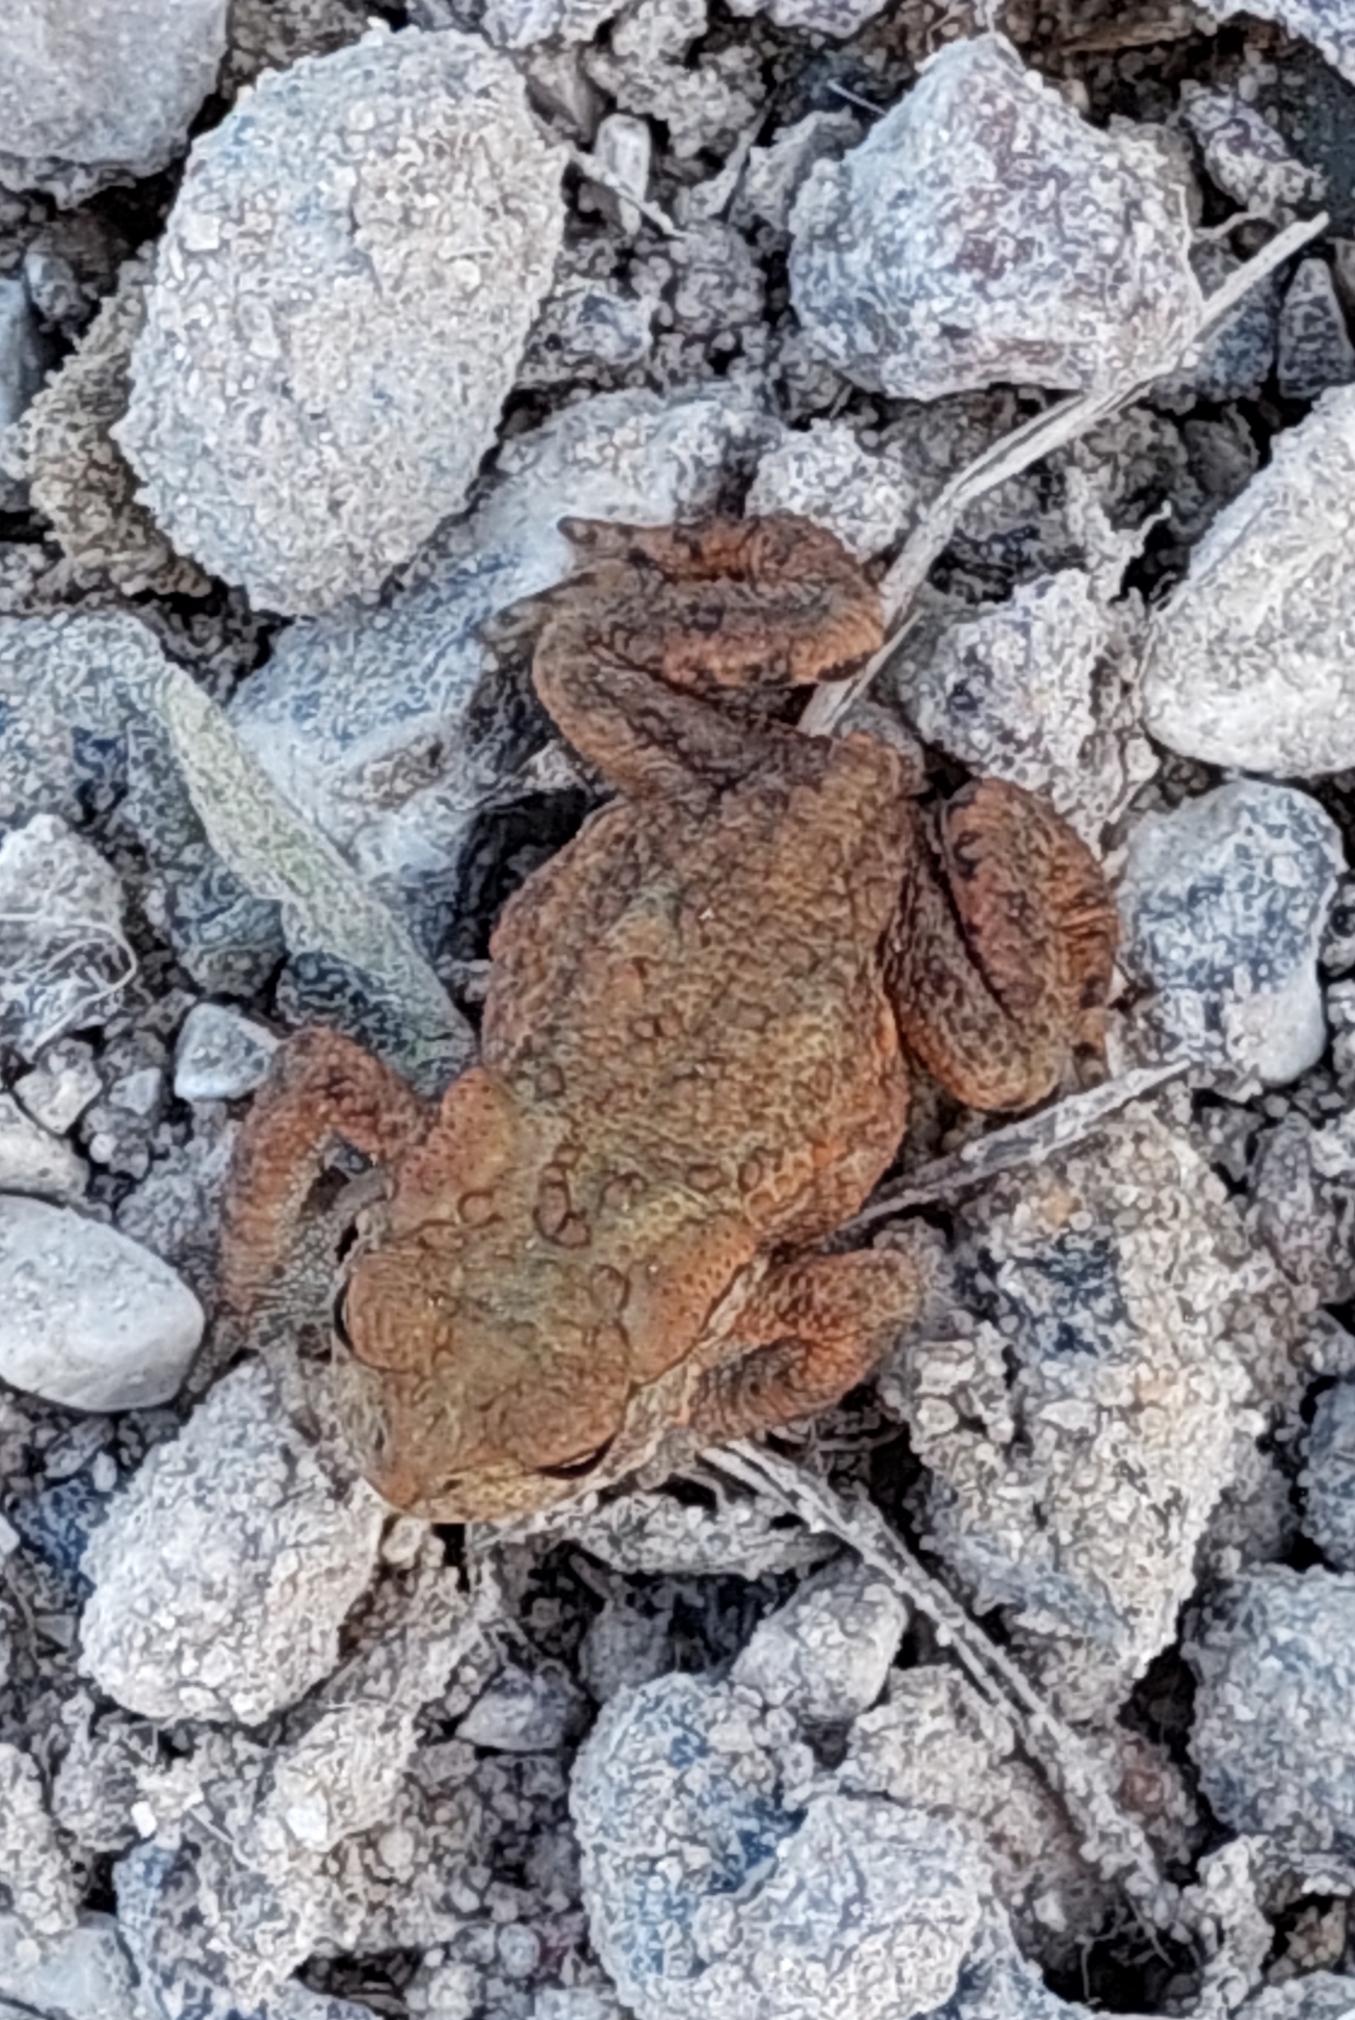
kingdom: Animalia
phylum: Chordata
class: Amphibia
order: Anura
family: Bufonidae
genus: Bufo
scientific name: Bufo bufo
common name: Skrubtudse
